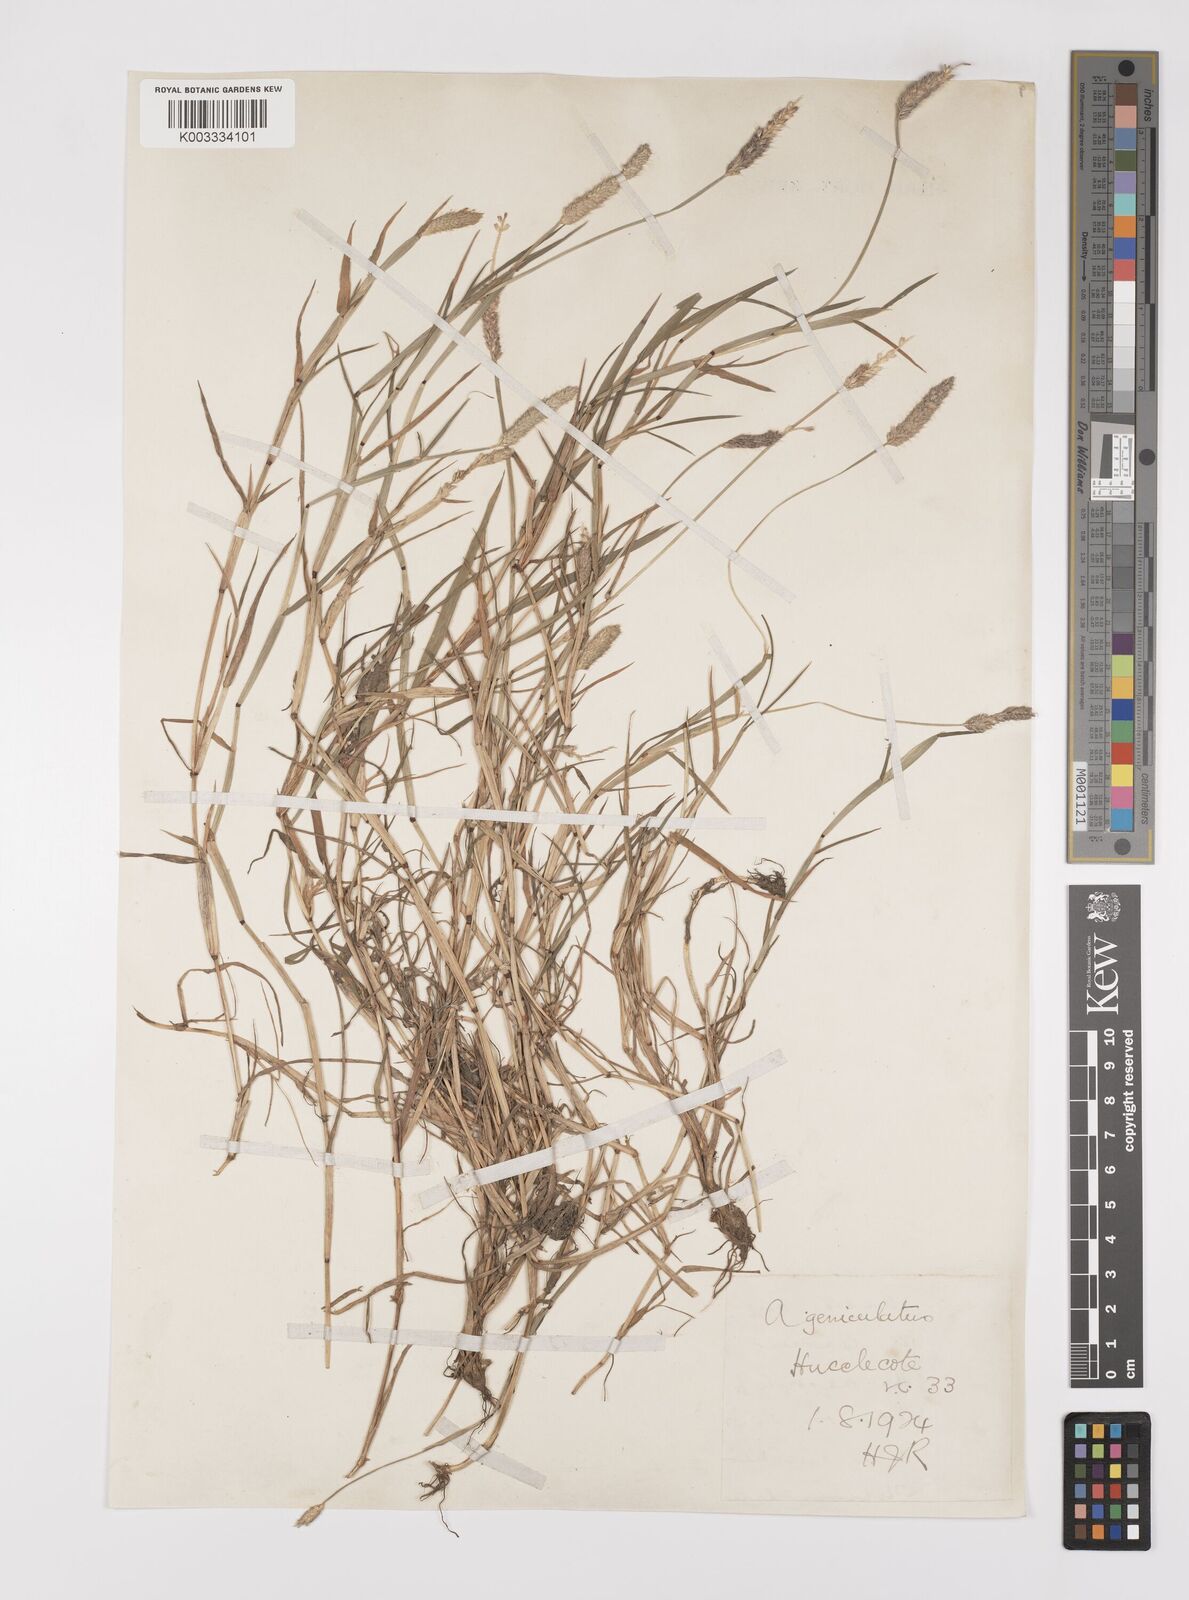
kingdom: Plantae
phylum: Tracheophyta
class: Liliopsida
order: Poales
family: Poaceae
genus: Alopecurus
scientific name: Alopecurus geniculatus
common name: Water foxtail
